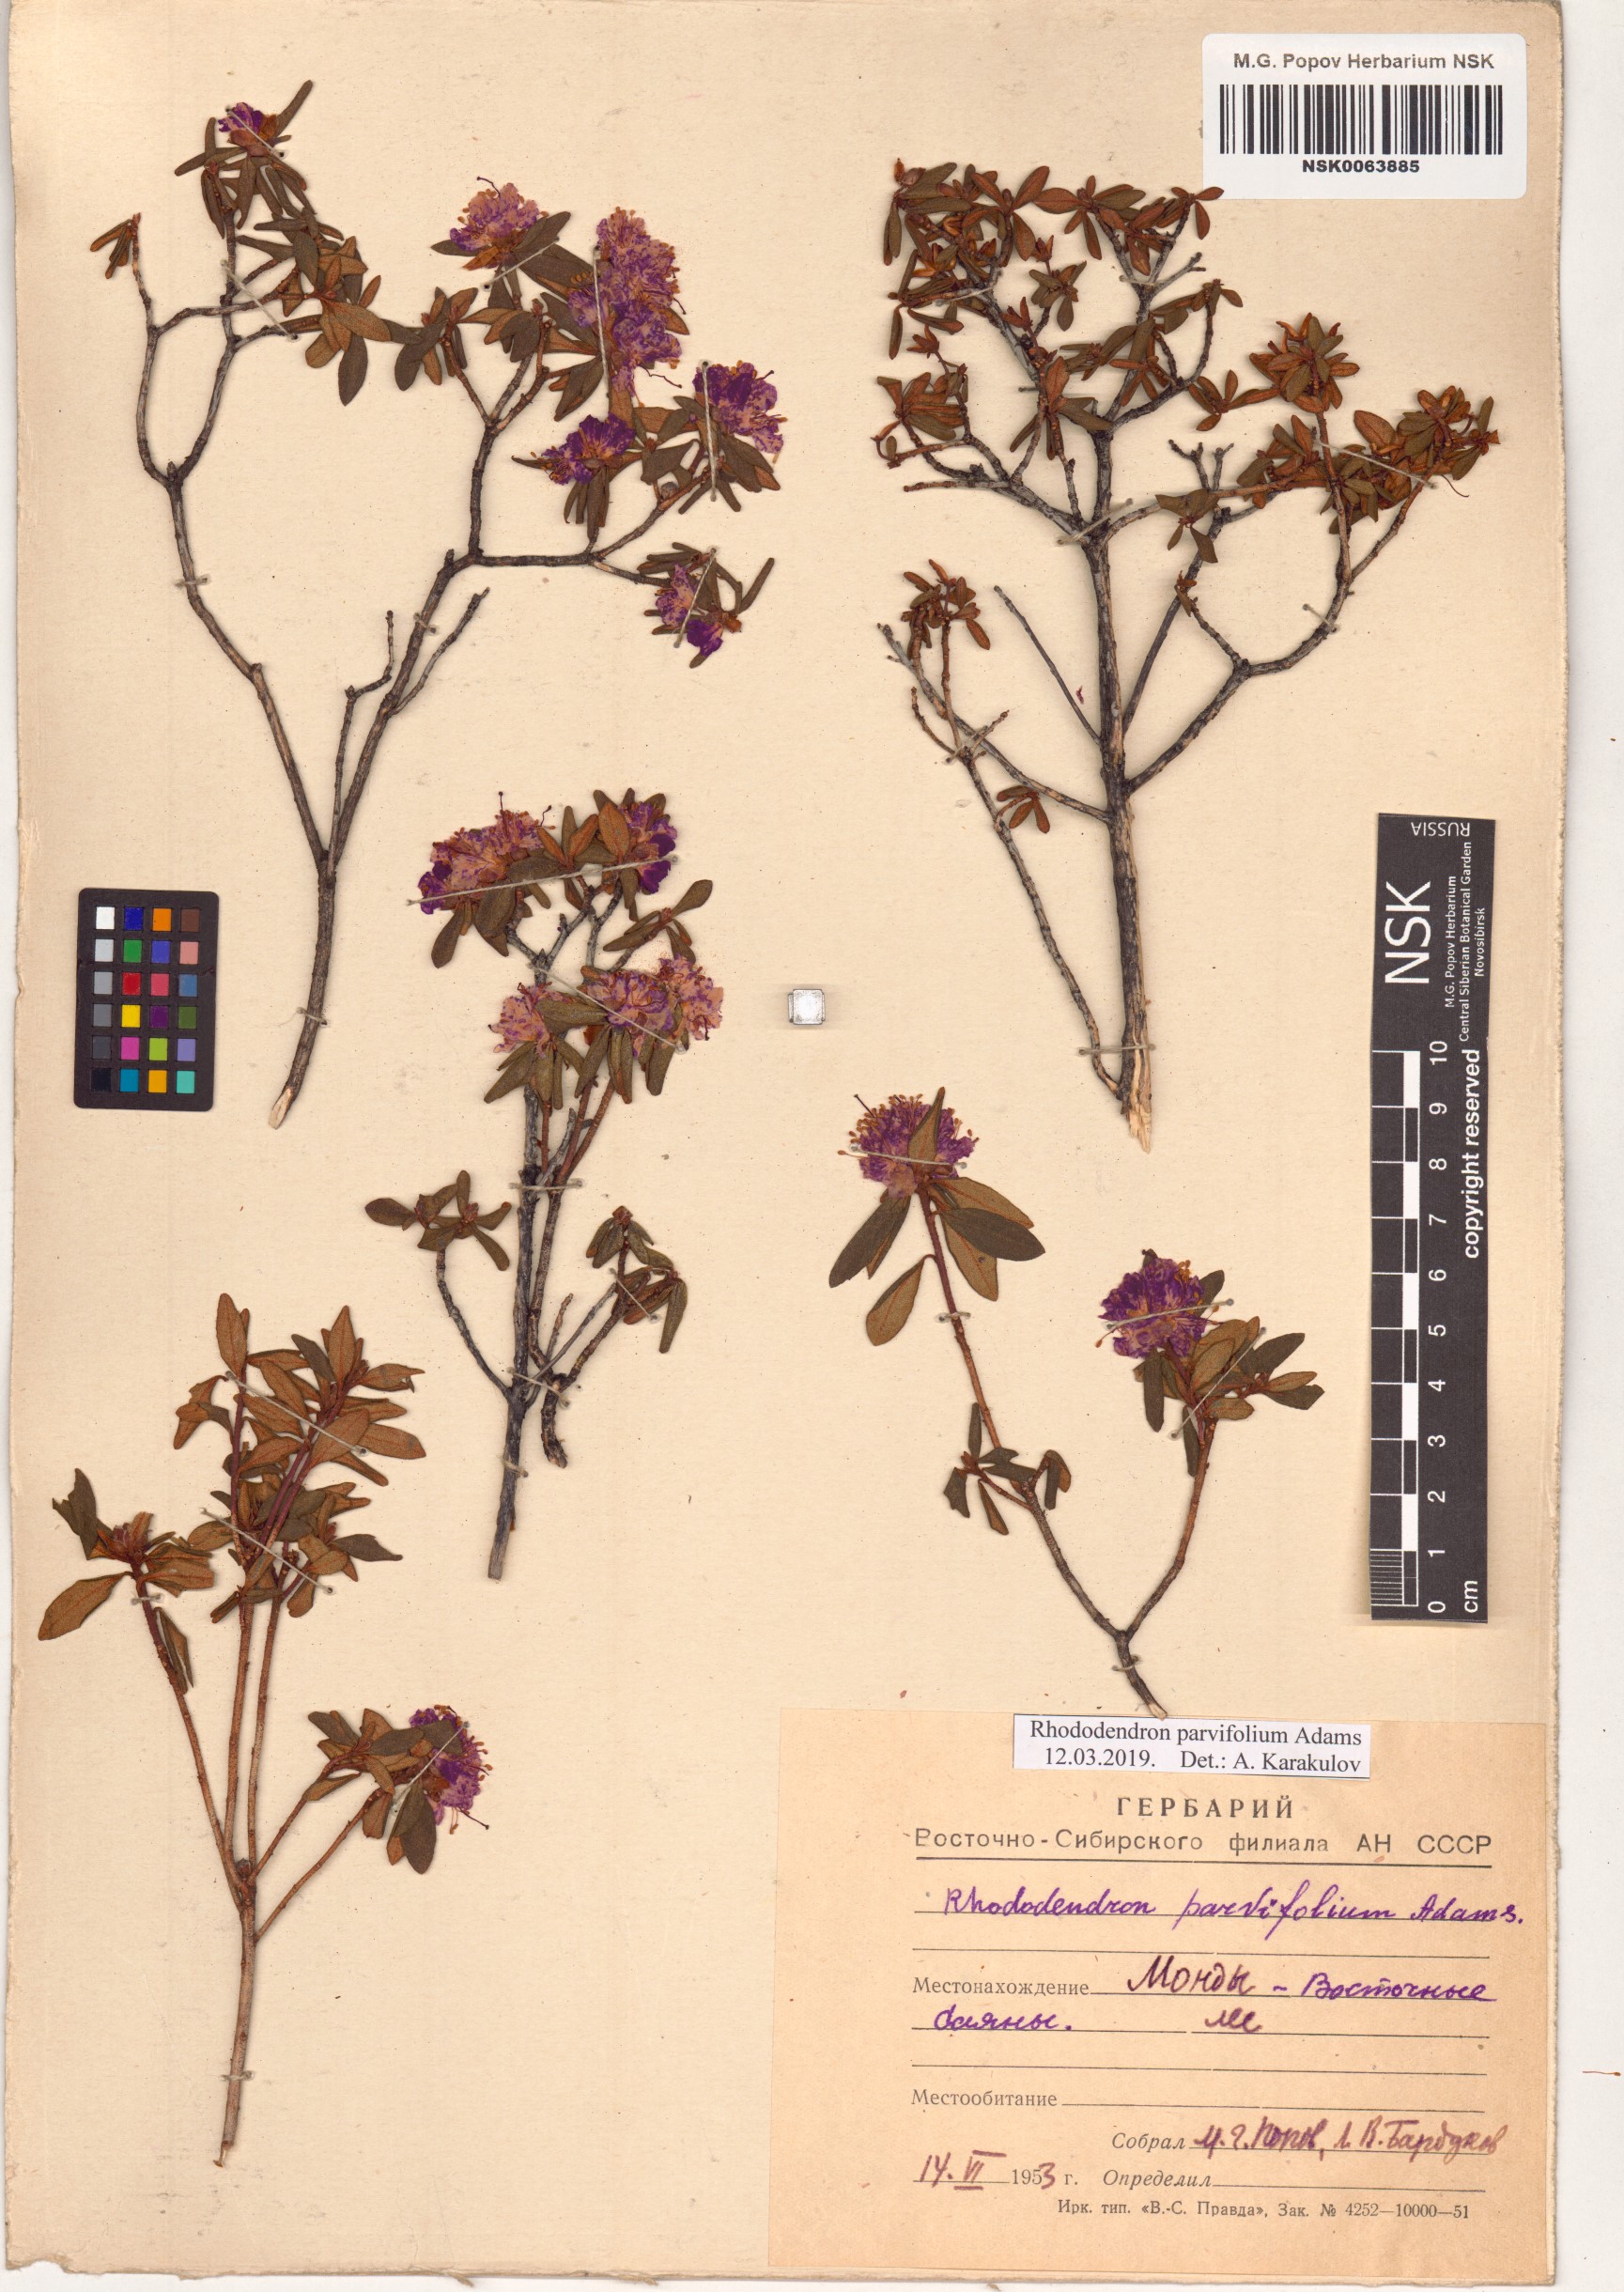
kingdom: Plantae
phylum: Tracheophyta
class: Magnoliopsida
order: Ericales
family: Ericaceae
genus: Rhododendron
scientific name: Rhododendron parvifolium
